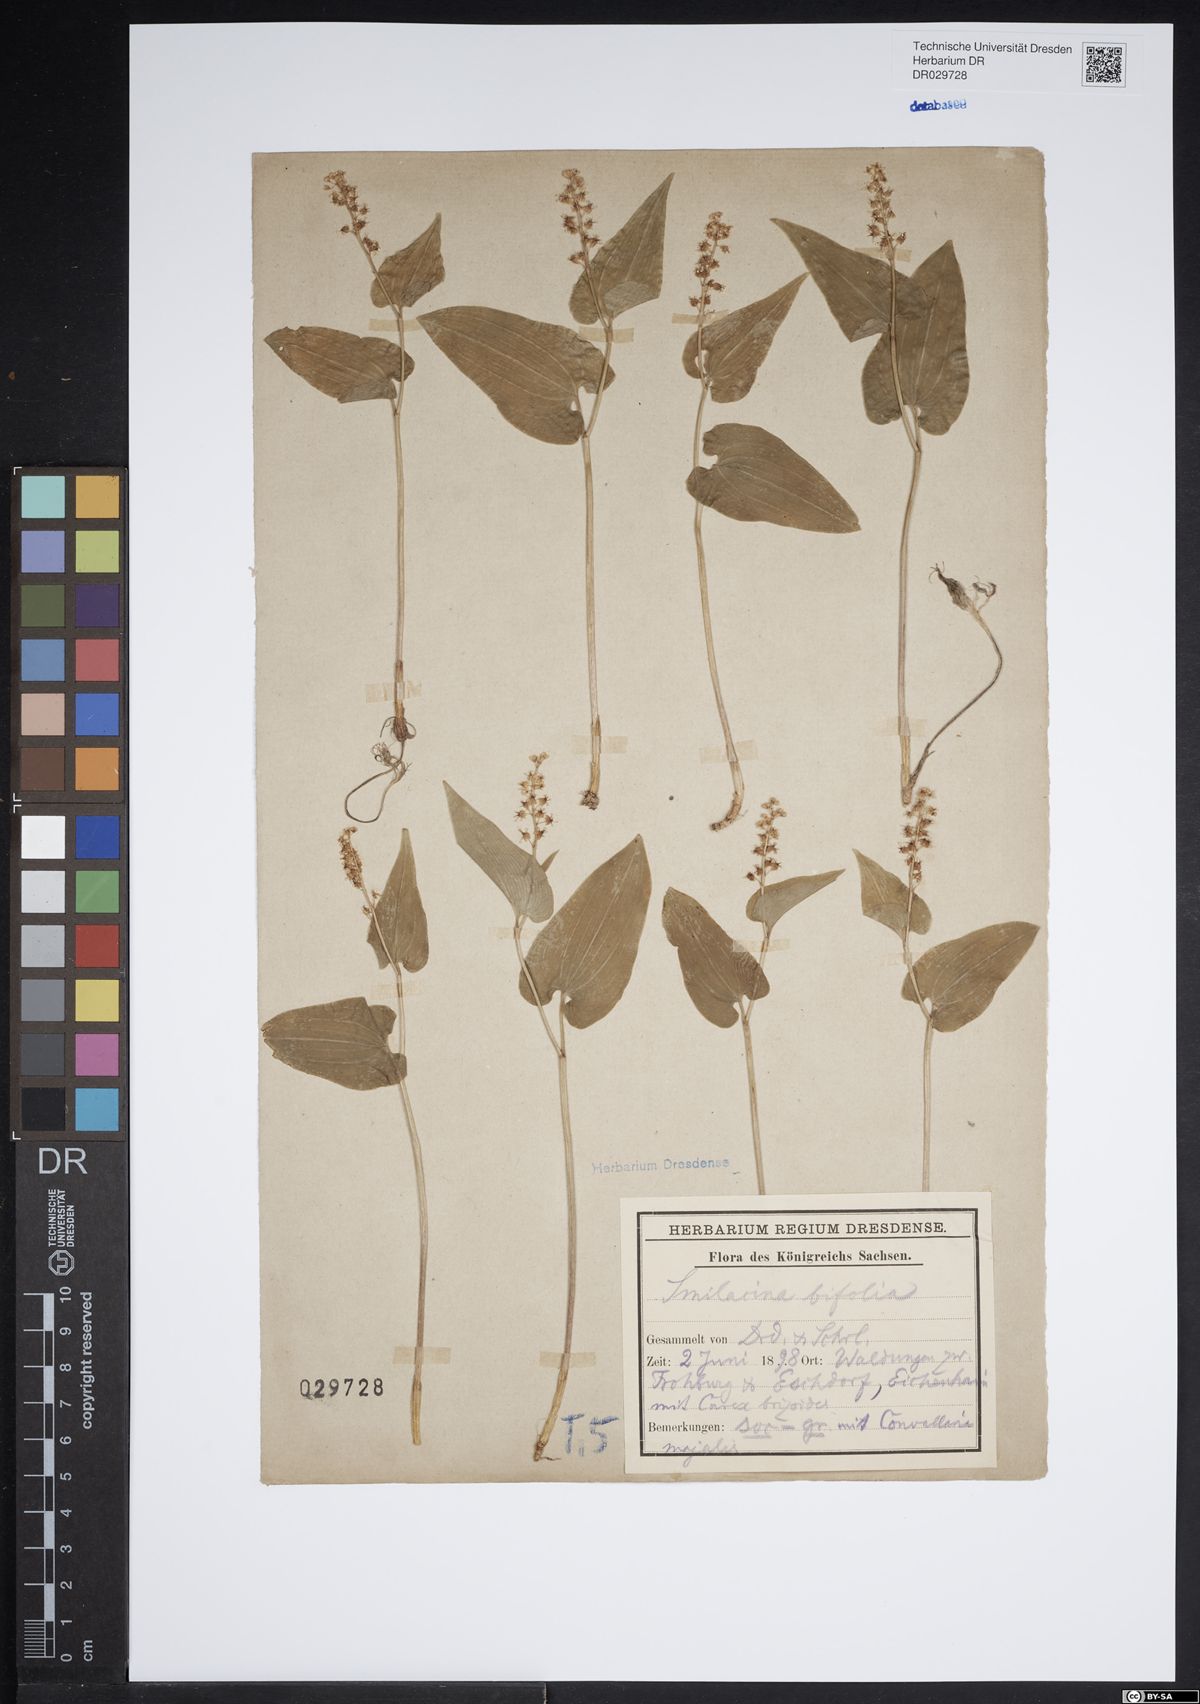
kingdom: Plantae
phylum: Tracheophyta
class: Liliopsida
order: Asparagales
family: Asparagaceae
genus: Maianthemum
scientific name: Maianthemum bifolium
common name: May lily
